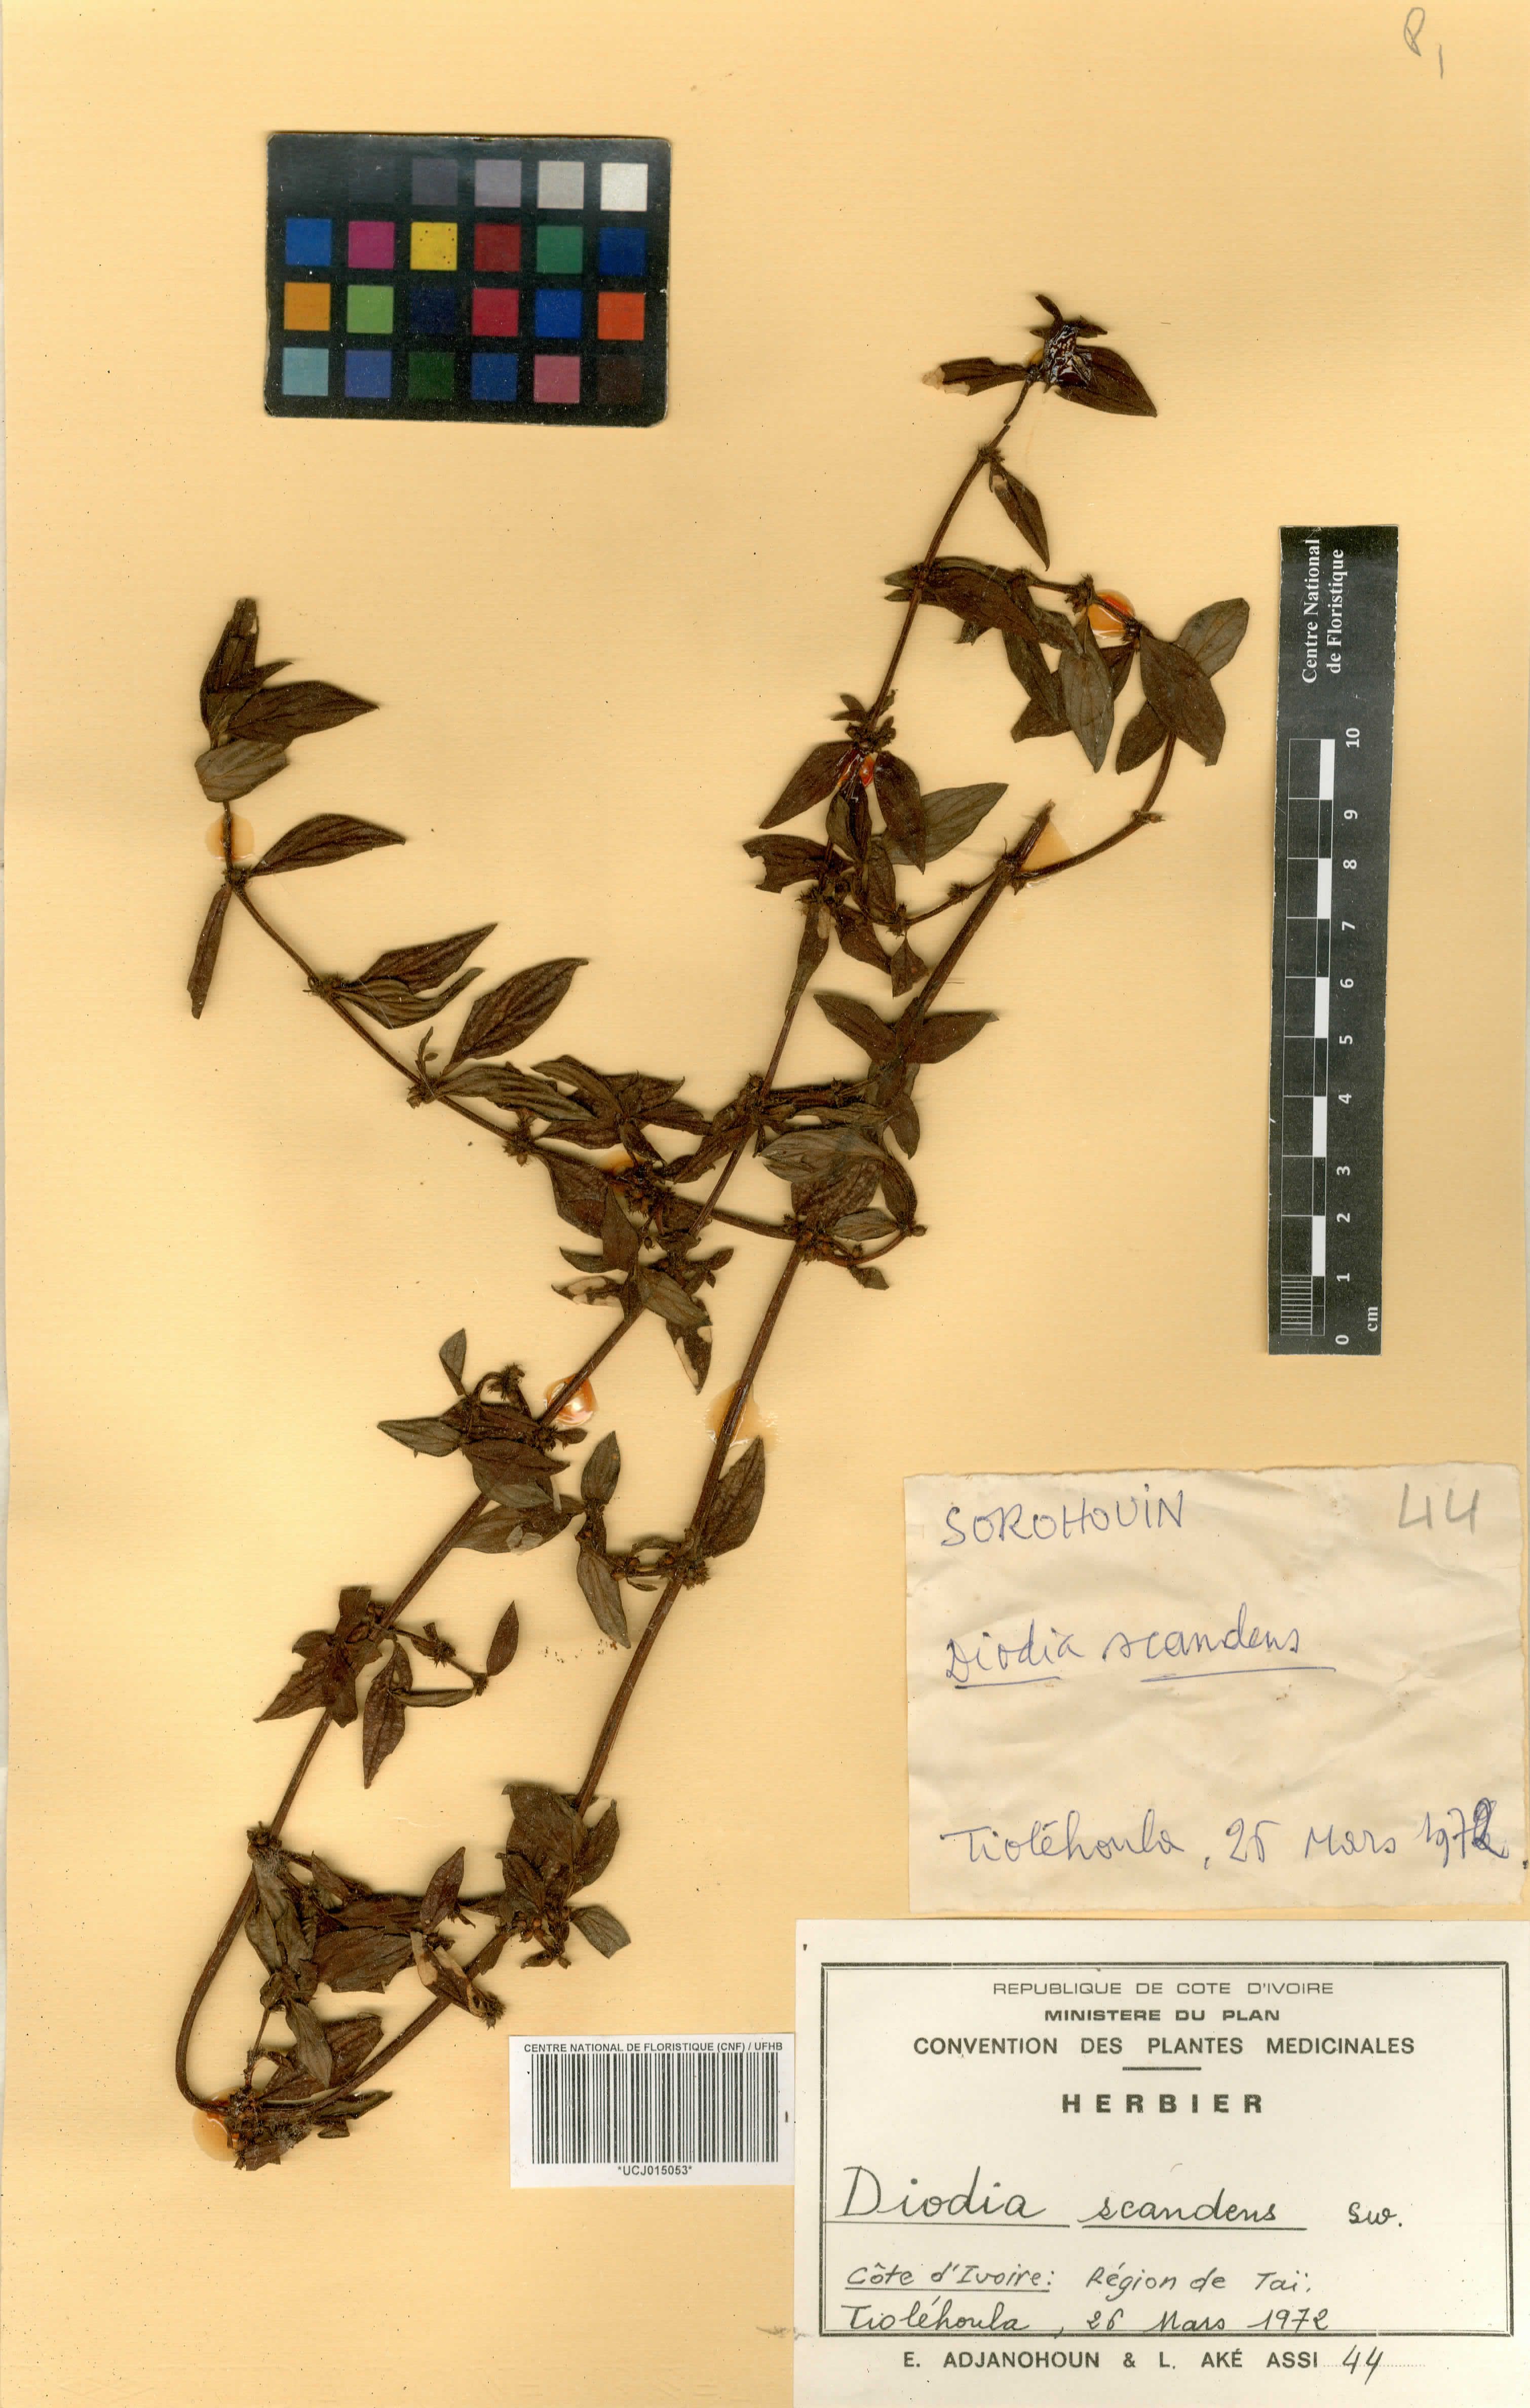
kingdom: Plantae
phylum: Tracheophyta
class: Magnoliopsida
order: Gentianales
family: Rubiaceae
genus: Hexasepalum
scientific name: Hexasepalum scandens
